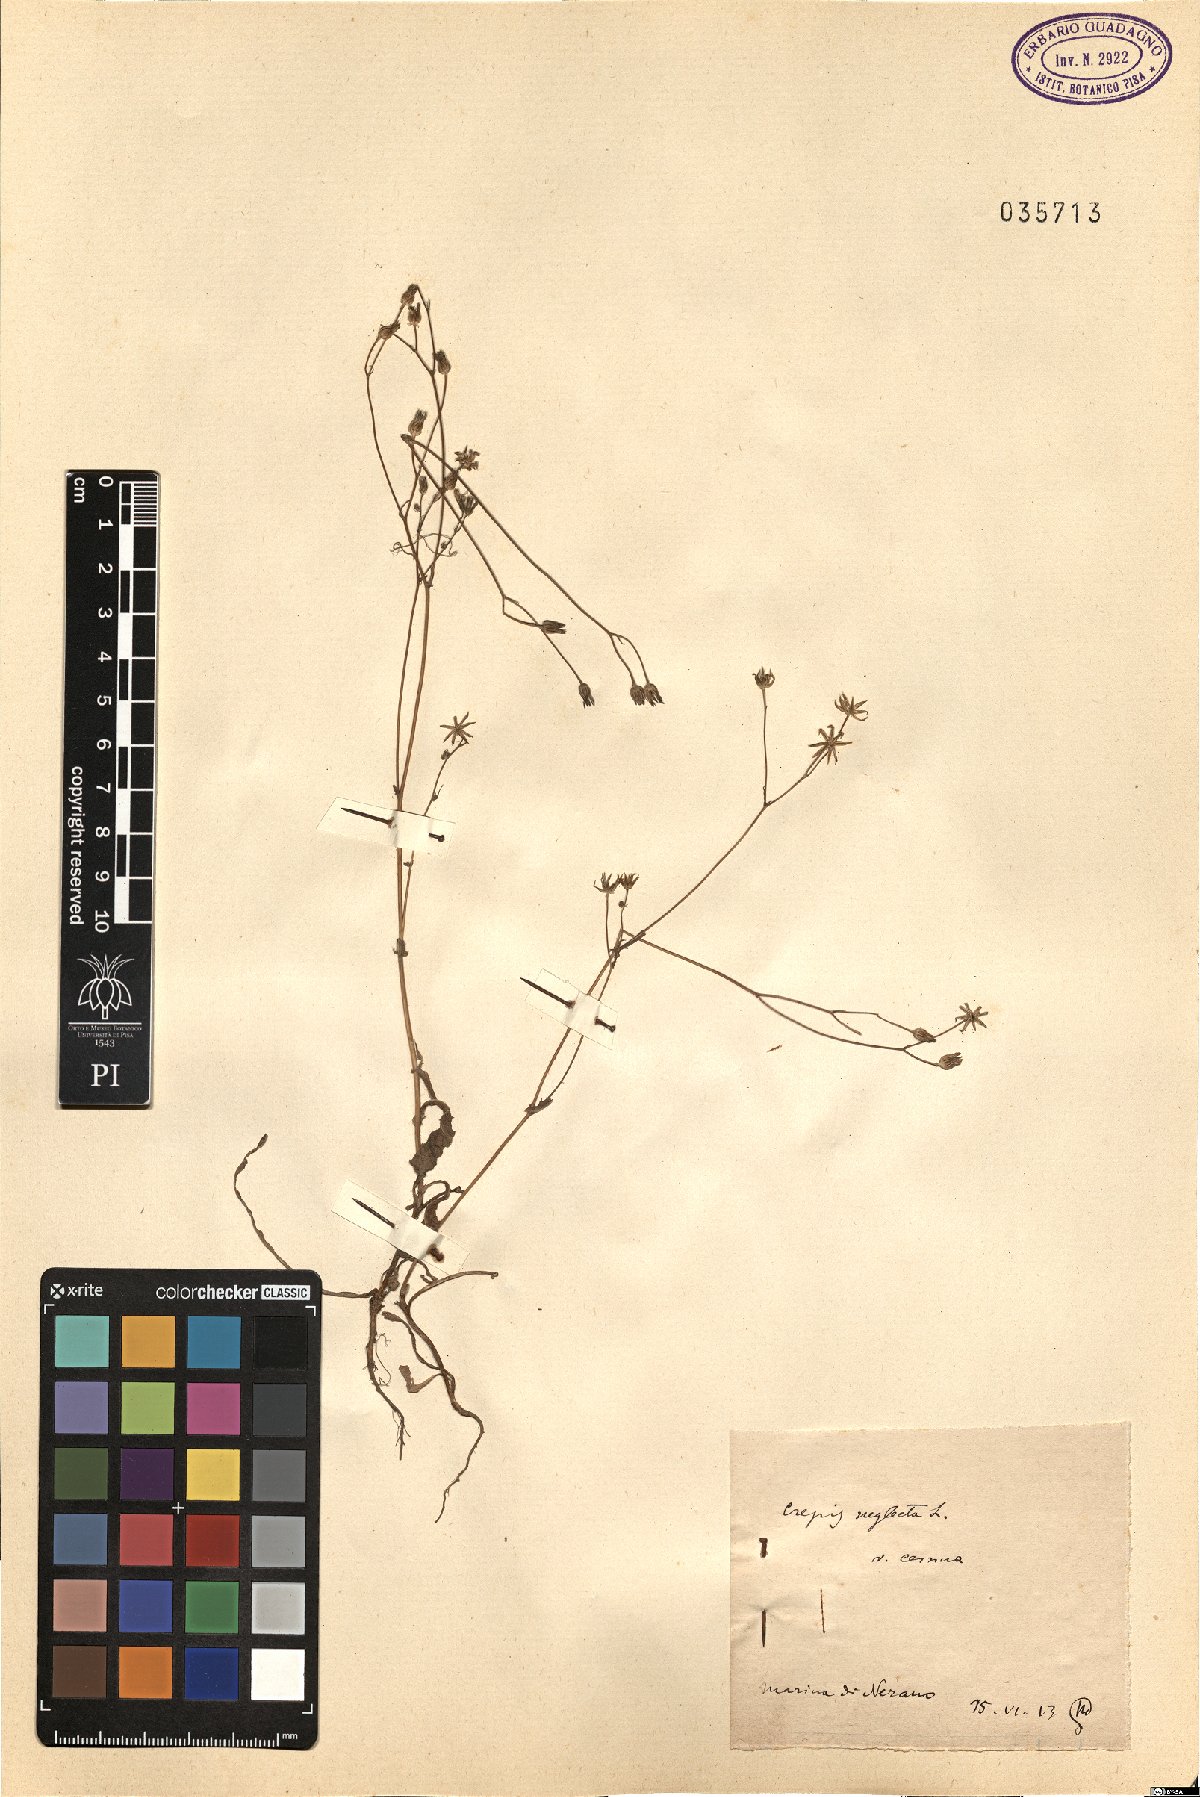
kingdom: Plantae
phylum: Tracheophyta
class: Magnoliopsida
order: Asterales
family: Asteraceae
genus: Crepis
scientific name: Crepis neglecta
